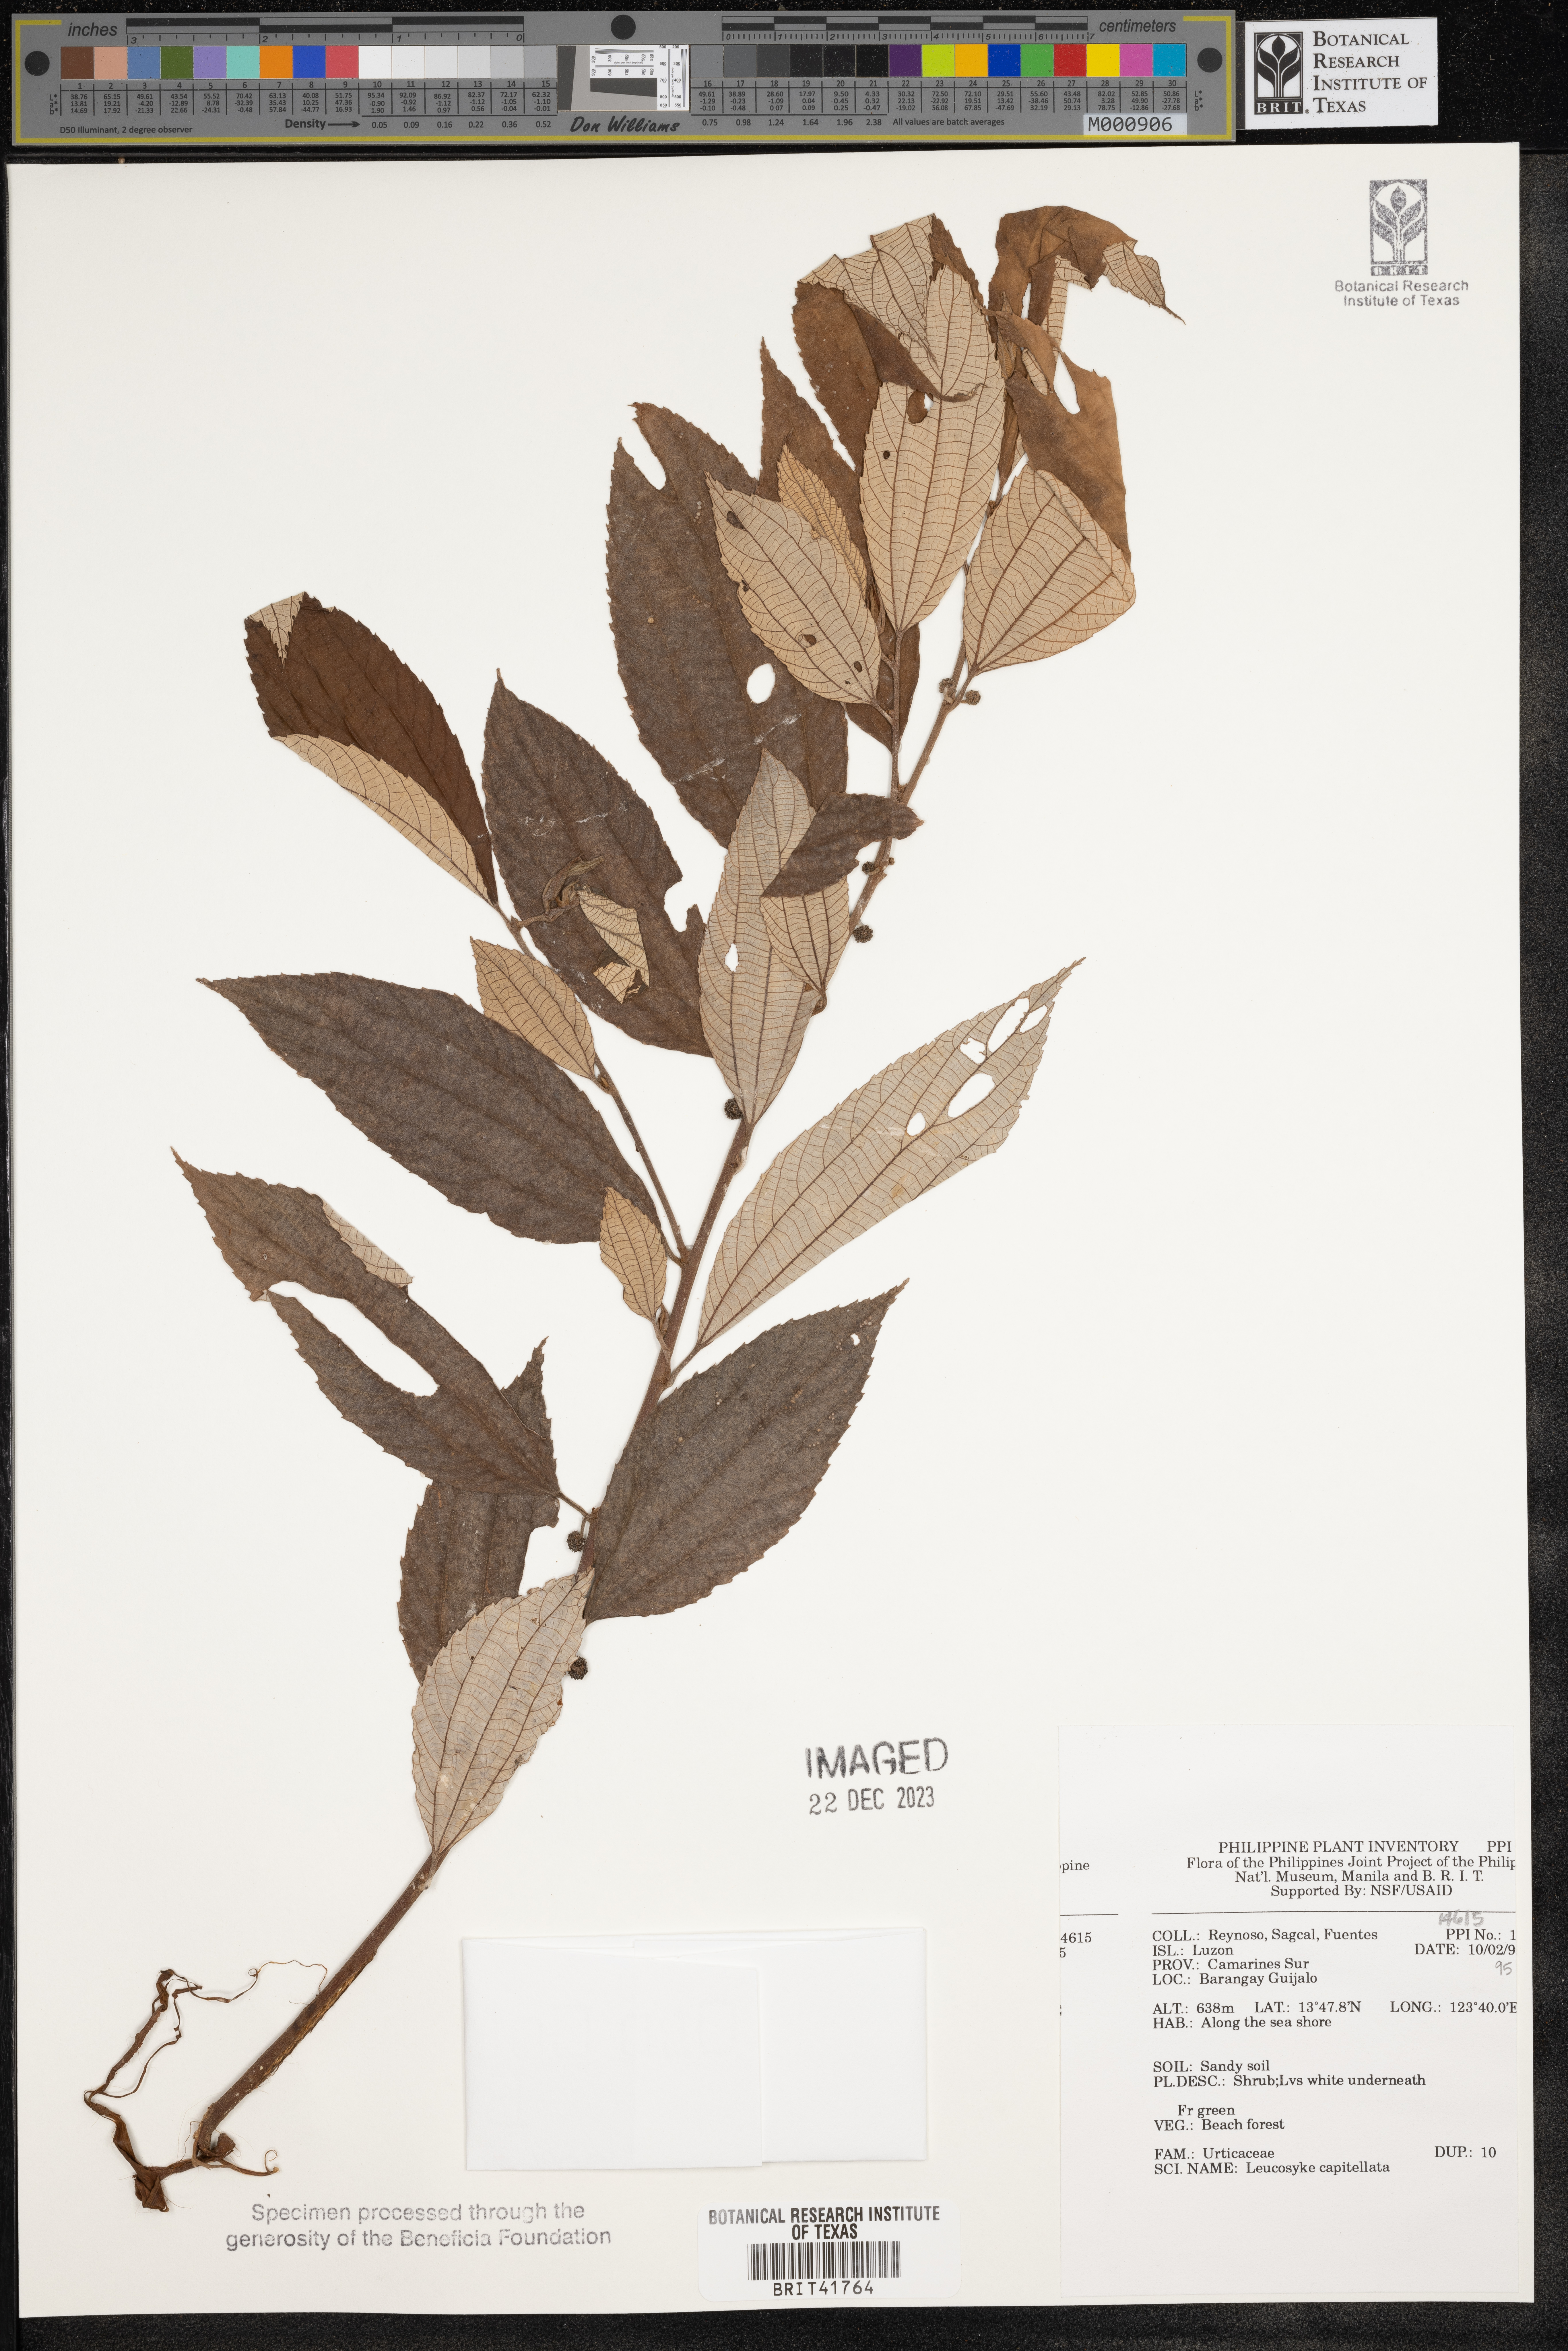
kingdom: Plantae
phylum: Tracheophyta
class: Magnoliopsida
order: Rosales
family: Urticaceae
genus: Leucosyke
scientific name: Leucosyke capitellata
